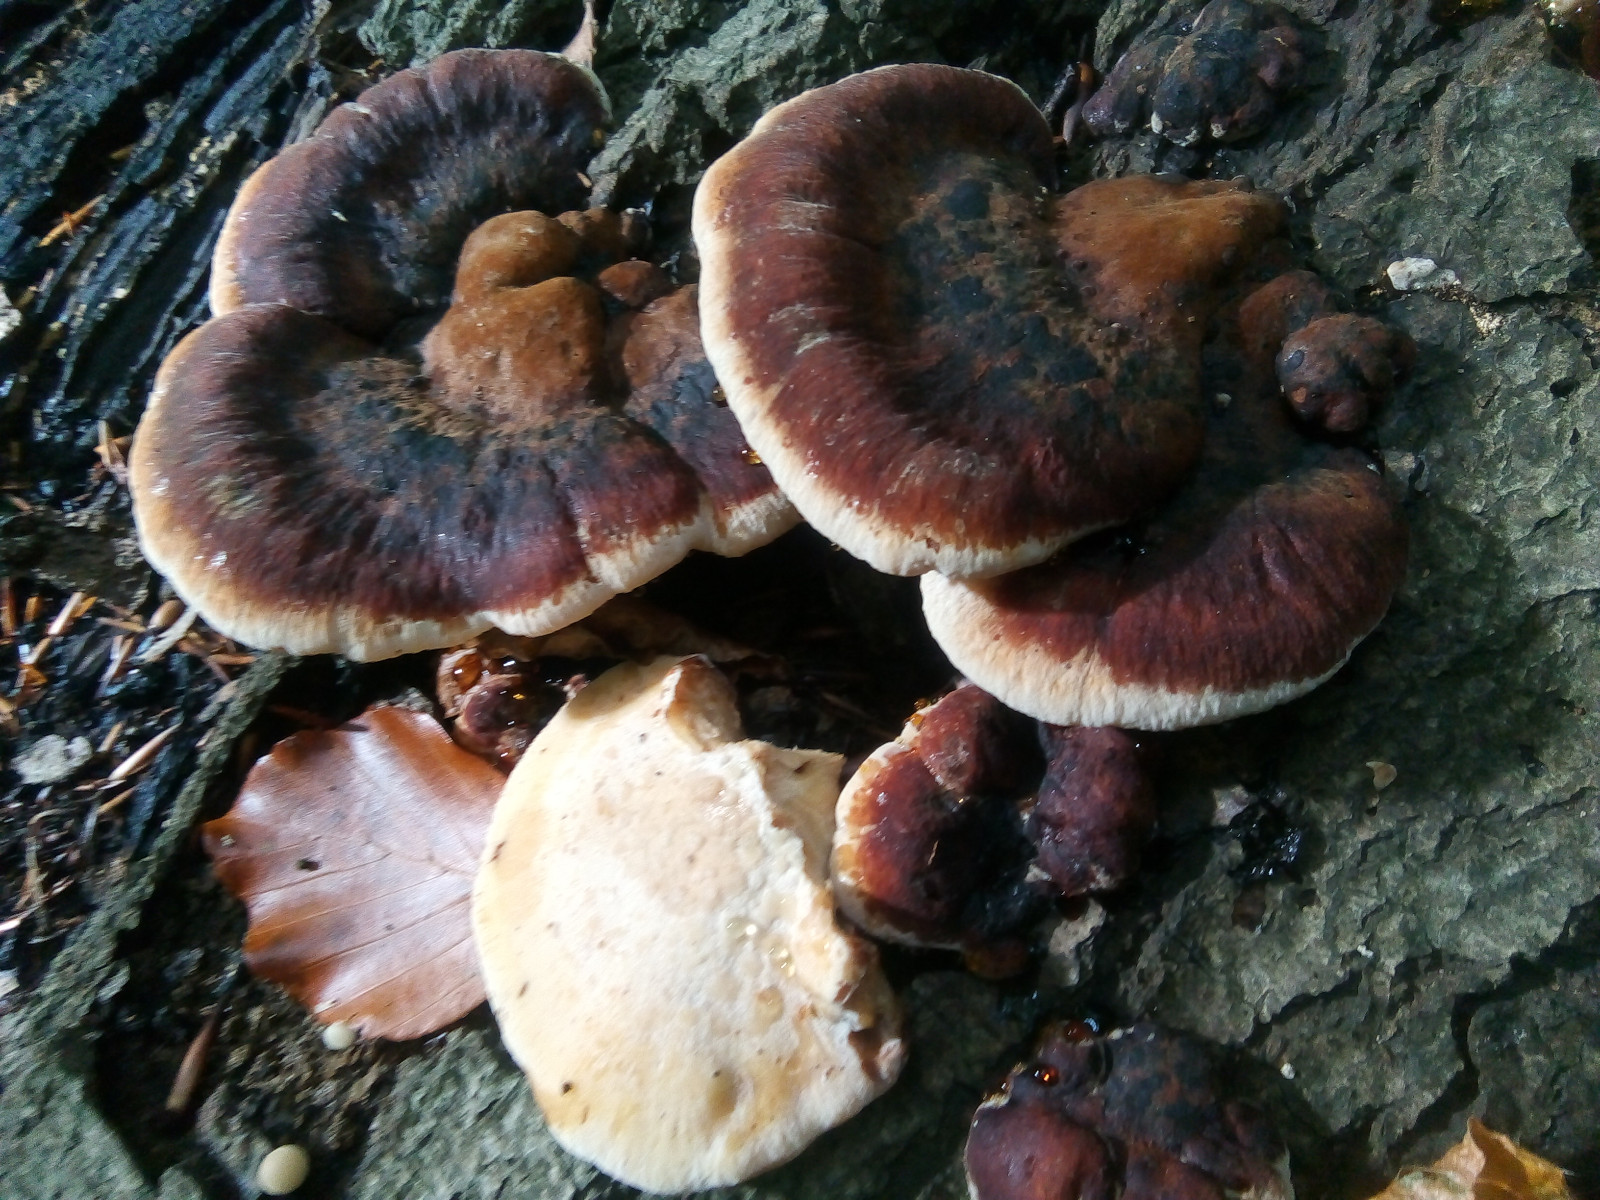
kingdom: Fungi
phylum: Basidiomycota
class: Agaricomycetes
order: Polyporales
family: Ischnodermataceae
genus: Ischnoderma
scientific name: Ischnoderma resinosum
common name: løv-tjæreporesvamp
